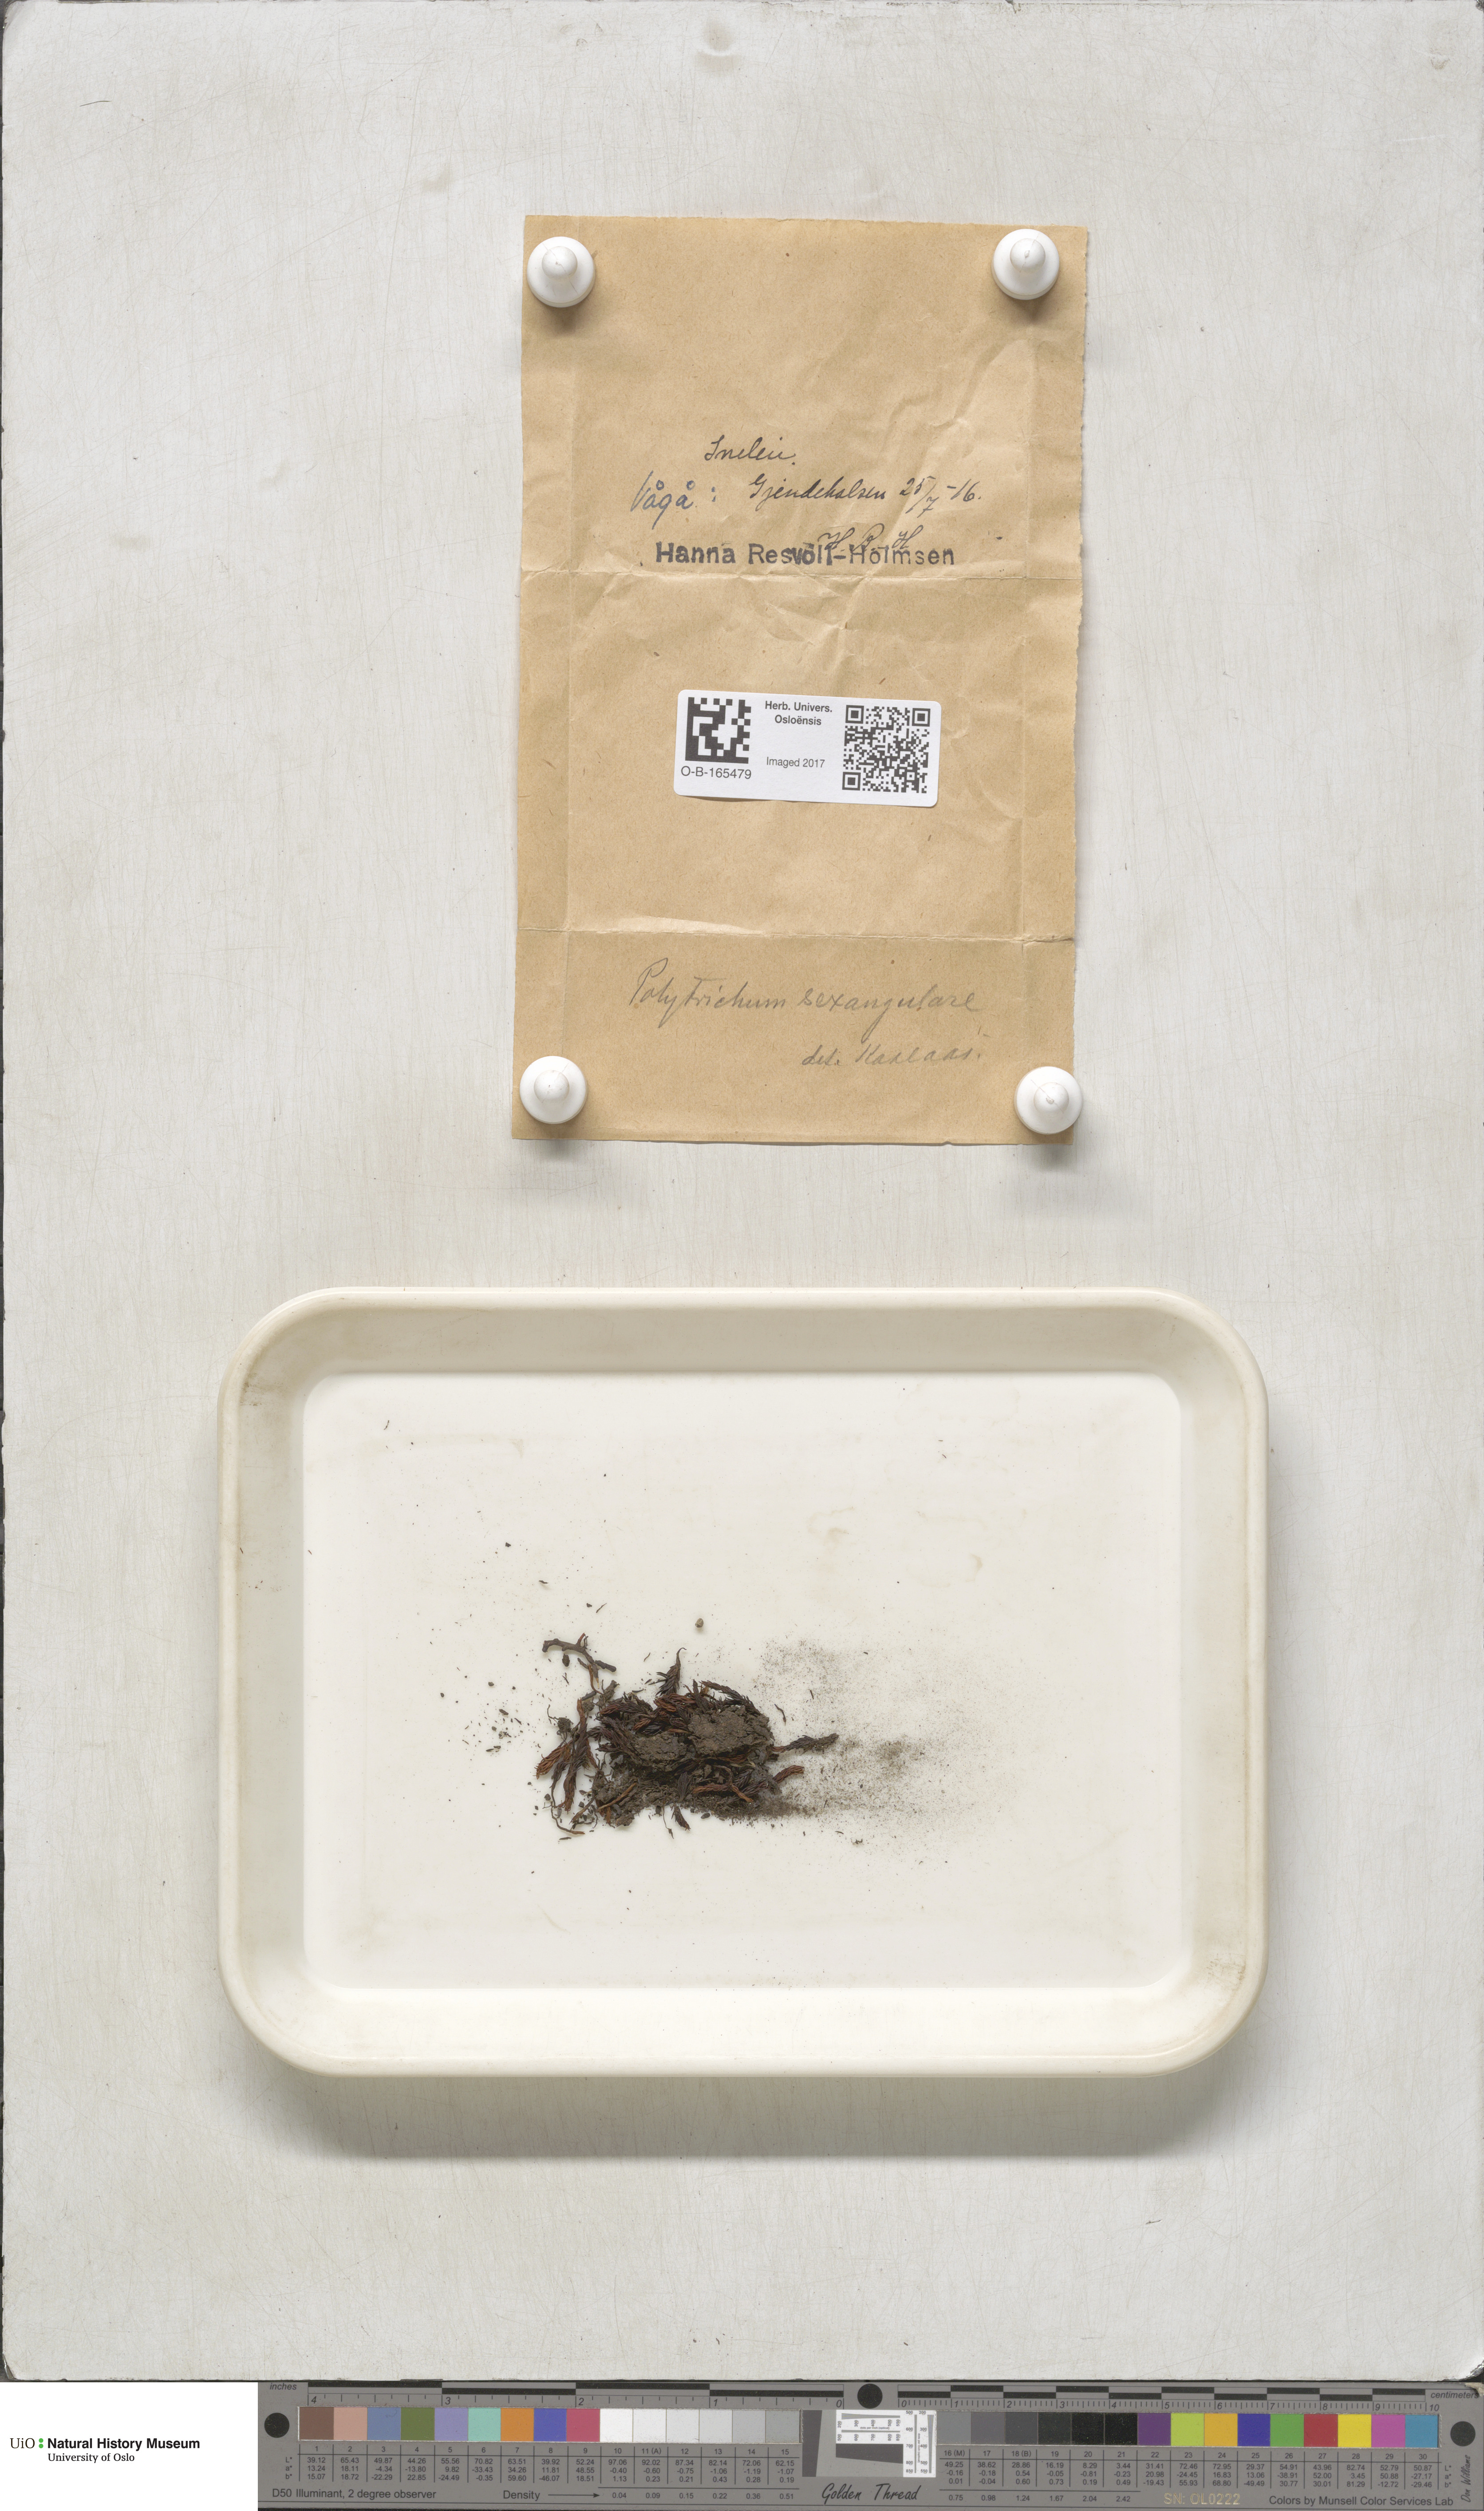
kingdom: Plantae
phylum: Bryophyta
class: Polytrichopsida
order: Polytrichales
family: Polytrichaceae
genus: Polytrichastrum
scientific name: Polytrichastrum sexangulare
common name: Northern haircap
